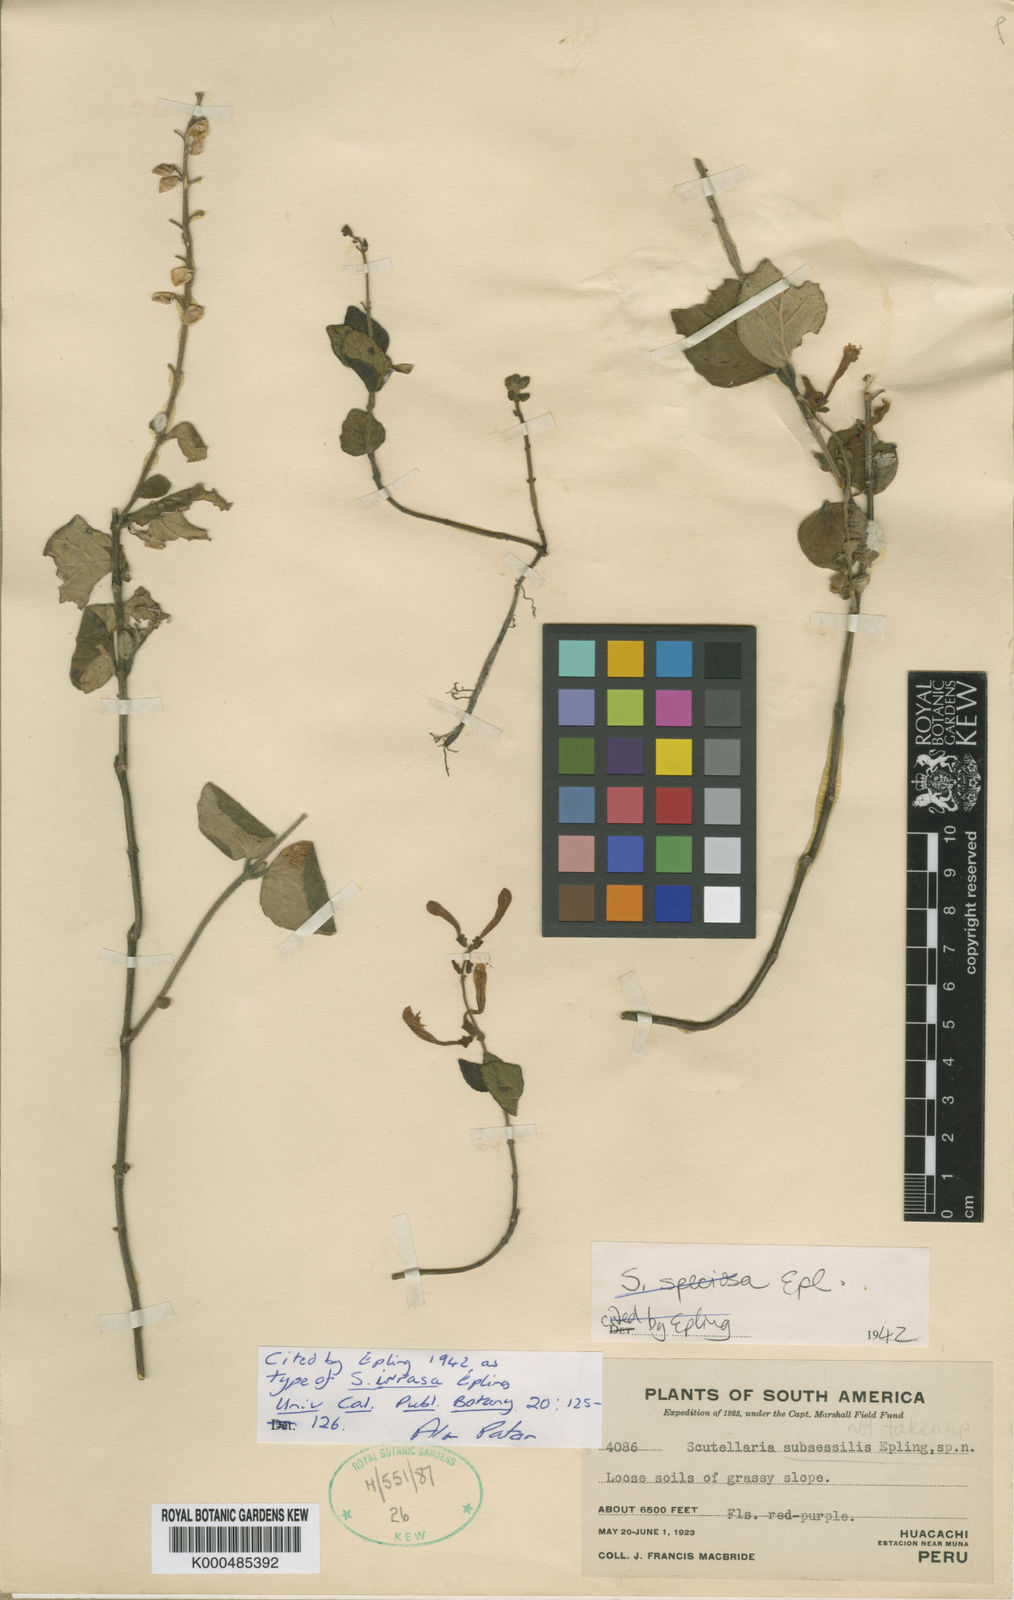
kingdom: Plantae
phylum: Tracheophyta
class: Magnoliopsida
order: Lamiales
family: Lamiaceae
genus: Scutellaria
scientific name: Scutellaria irrasa
